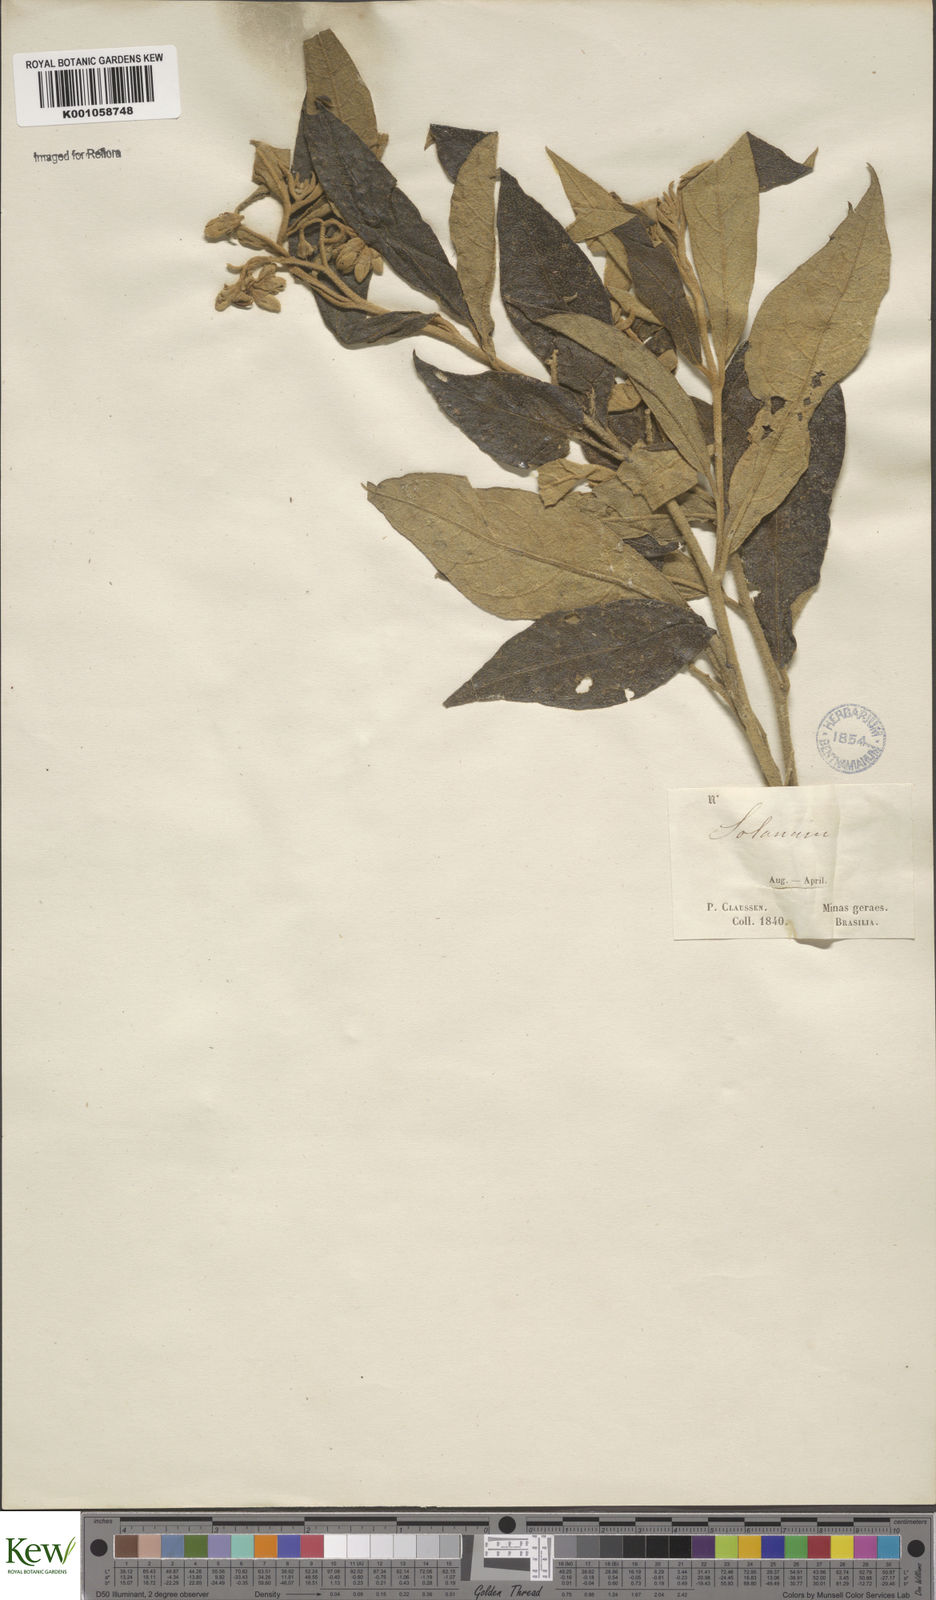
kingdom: Plantae
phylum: Tracheophyta
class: Magnoliopsida
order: Solanales
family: Solanaceae
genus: Solanum
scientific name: Solanum subumbellatum
